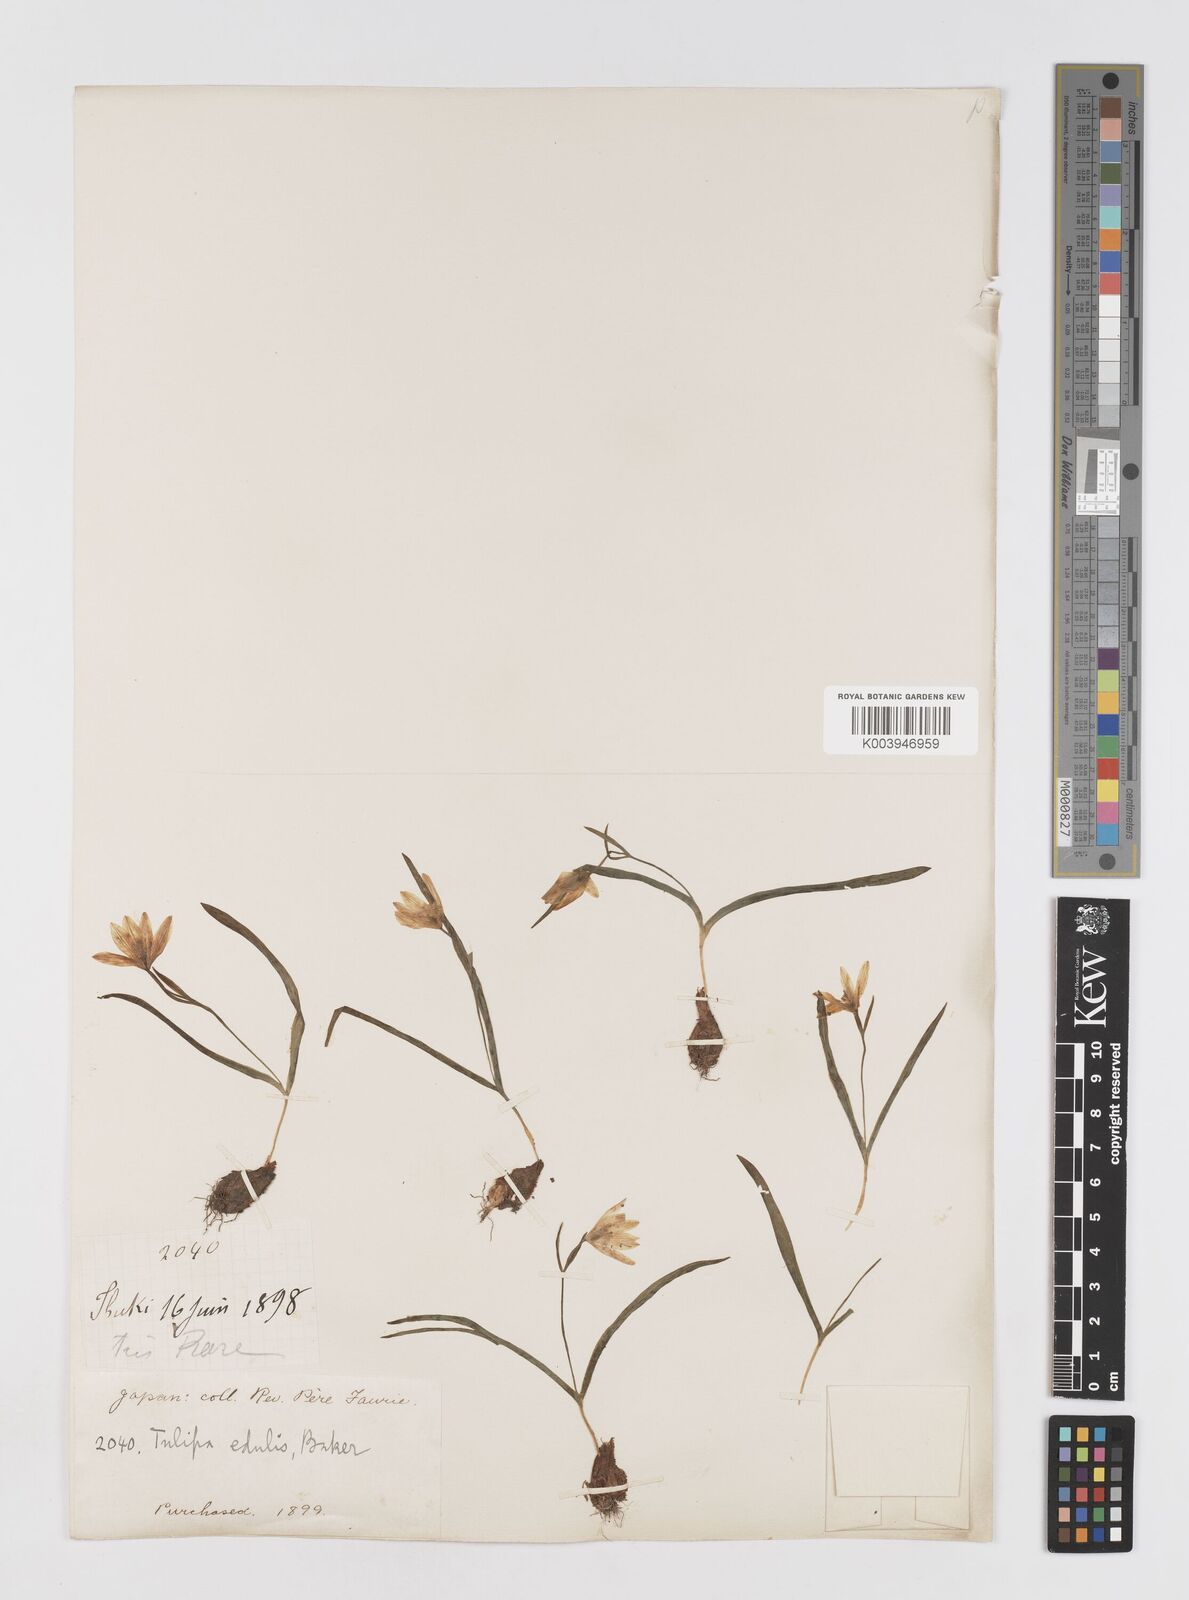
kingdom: Plantae
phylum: Tracheophyta
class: Liliopsida
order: Liliales
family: Liliaceae
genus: Amana
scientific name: Amana edulis
